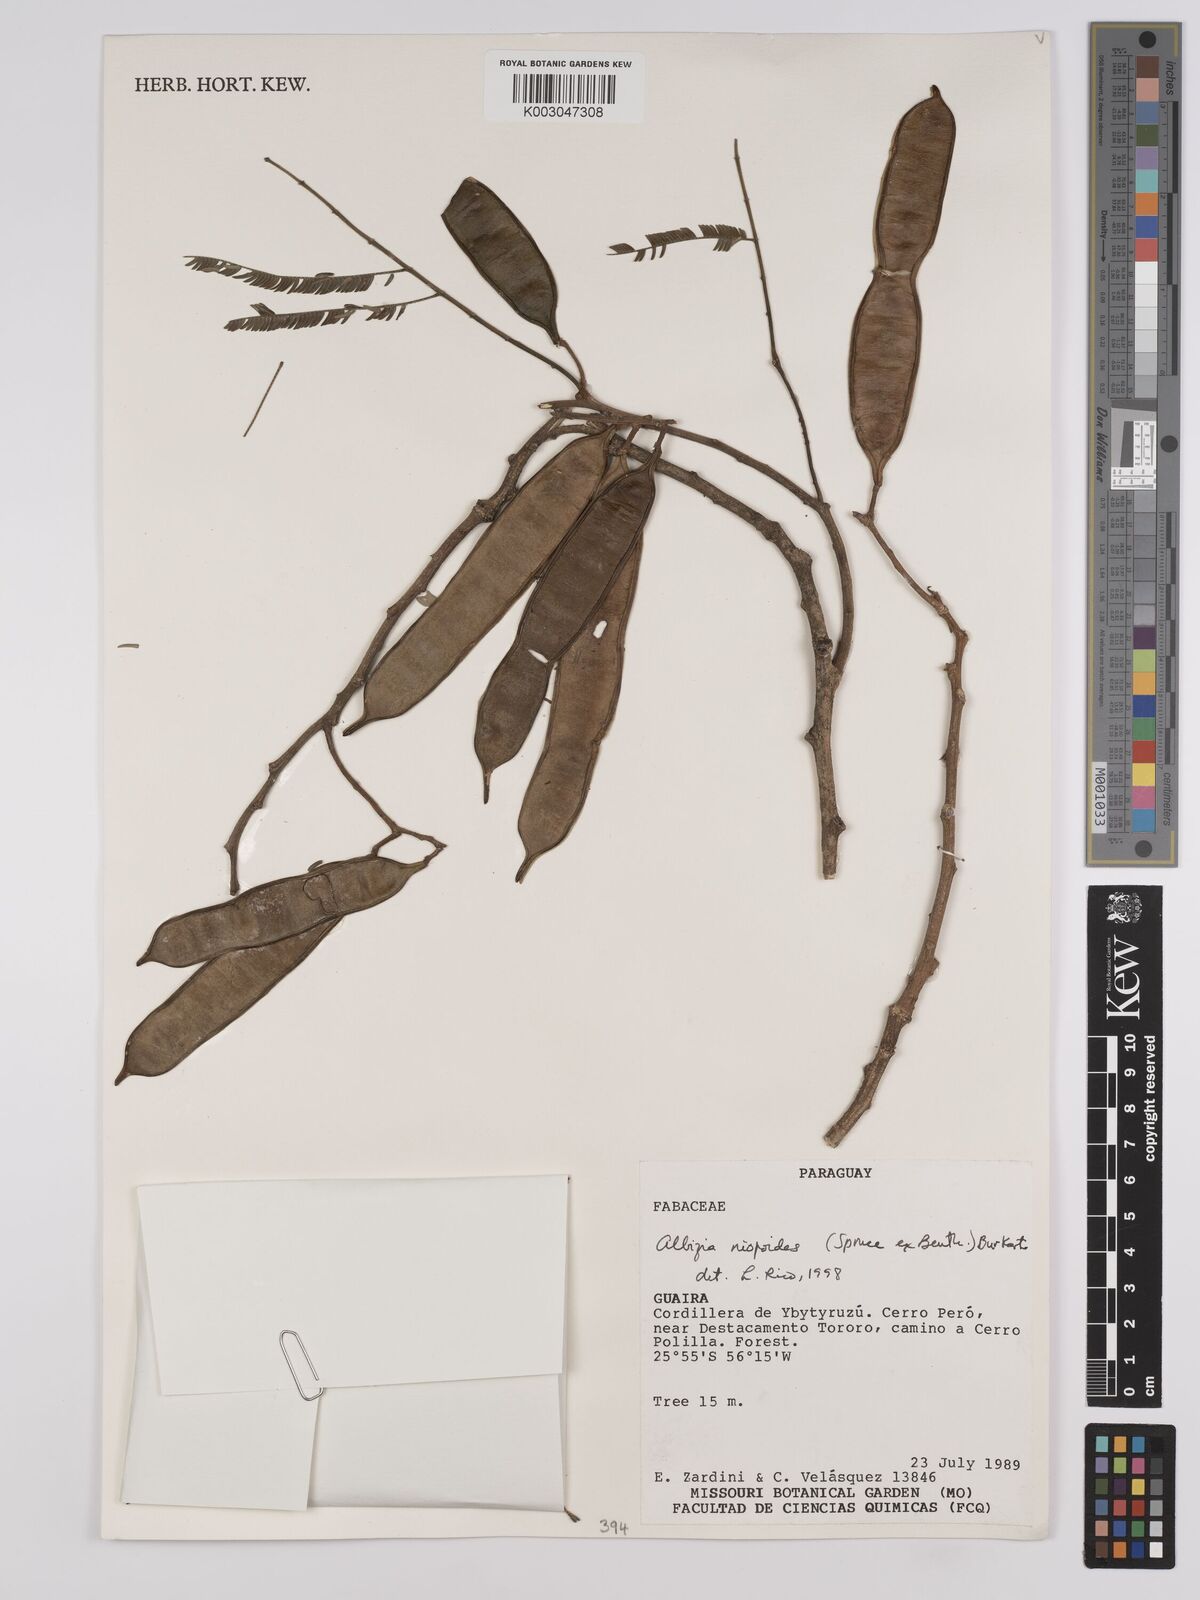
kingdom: Plantae
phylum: Tracheophyta
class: Magnoliopsida
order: Fabales
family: Fabaceae
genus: Albizia
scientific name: Albizia niopoides
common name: Silk tree
